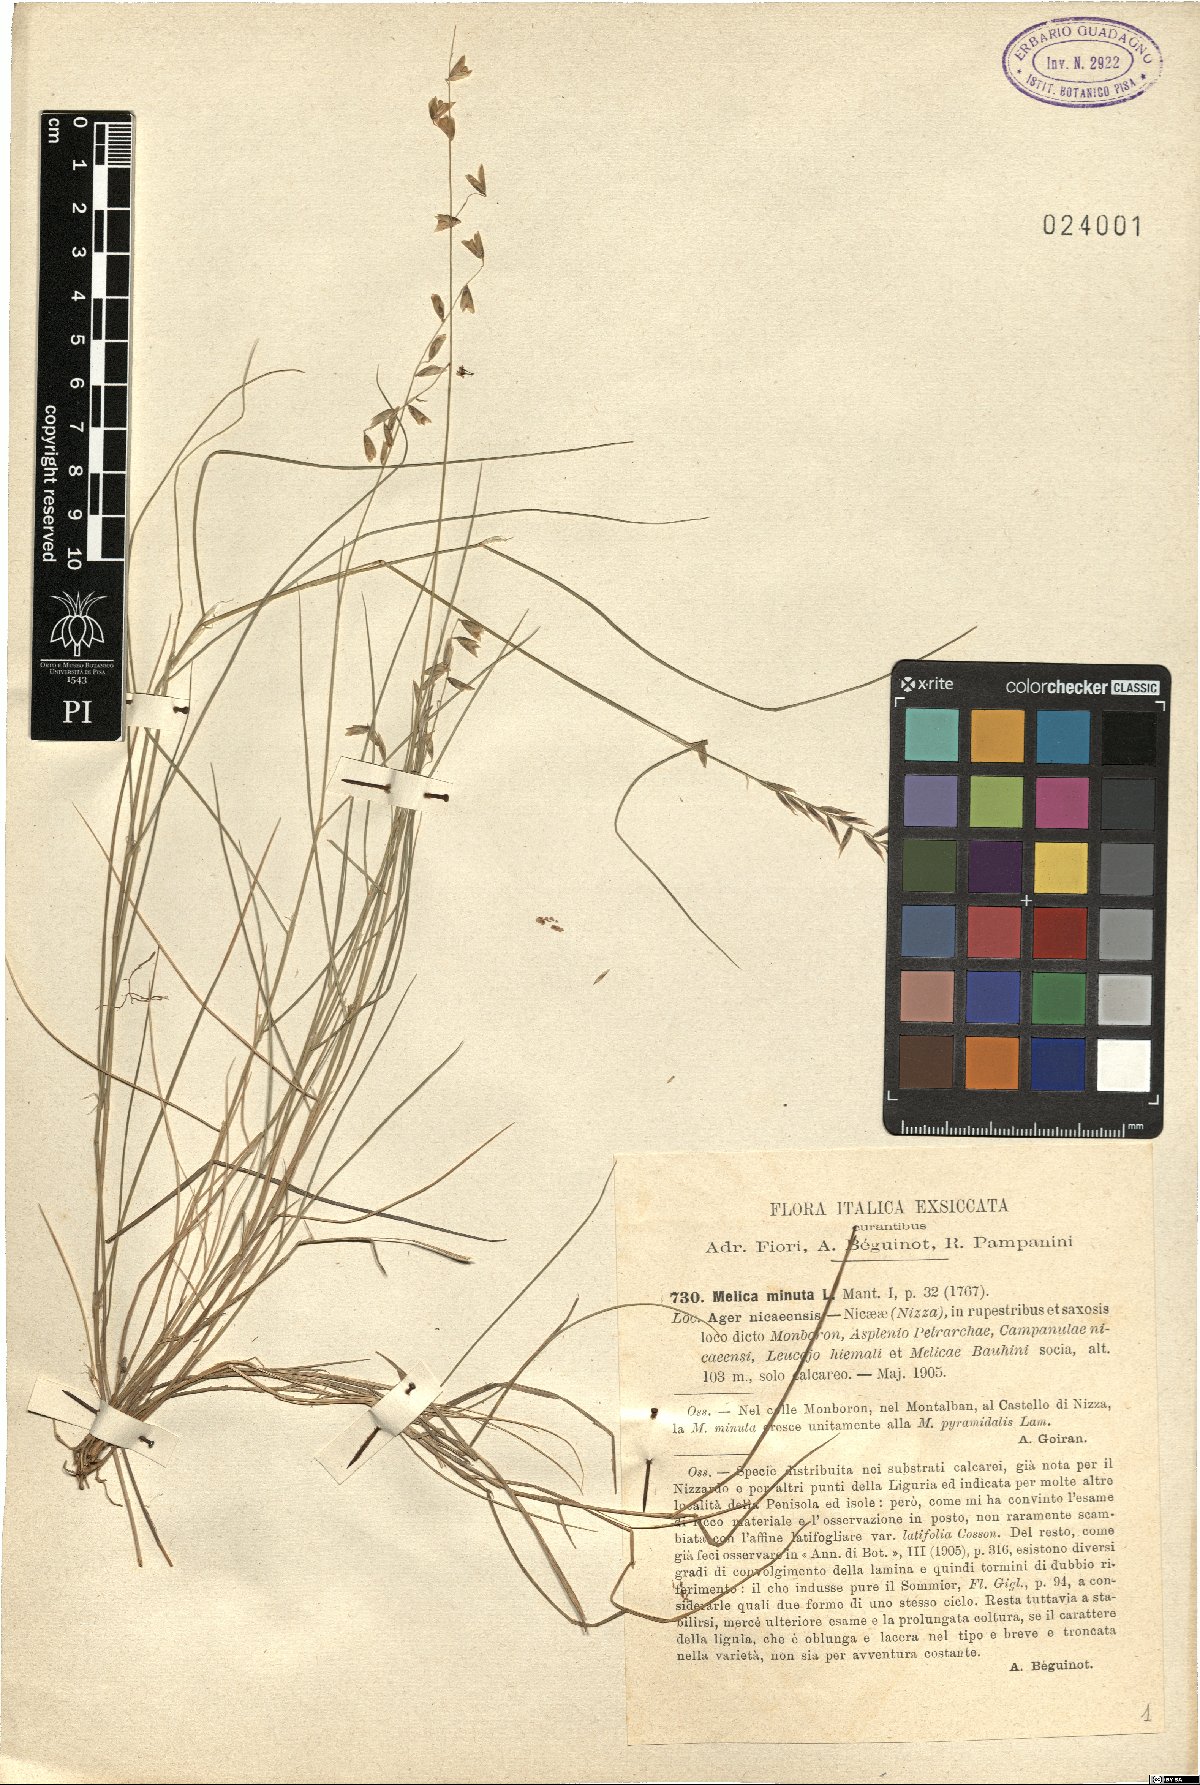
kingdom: Plantae
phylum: Tracheophyta
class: Liliopsida
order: Poales
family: Poaceae
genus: Melica
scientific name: Melica minuta
